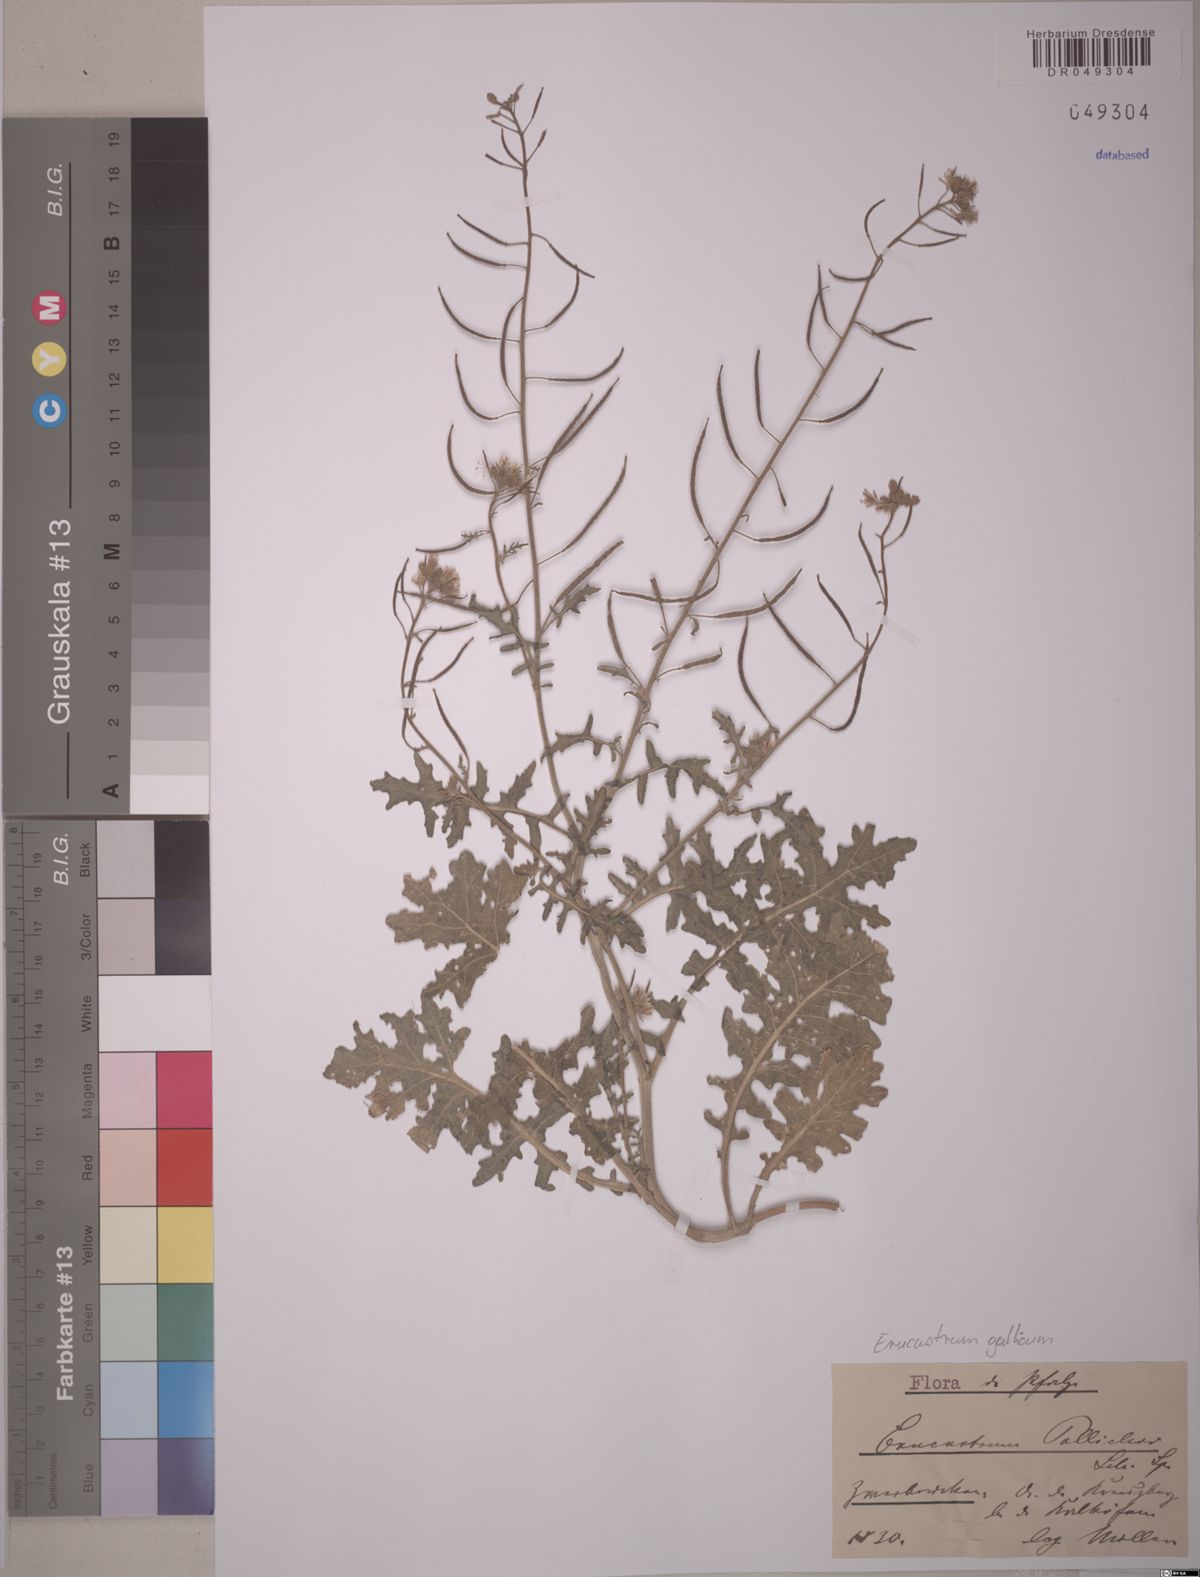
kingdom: Plantae
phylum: Tracheophyta
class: Magnoliopsida
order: Brassicales
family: Brassicaceae
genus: Erucastrum
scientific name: Erucastrum gallicum
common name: Hairy rocket
